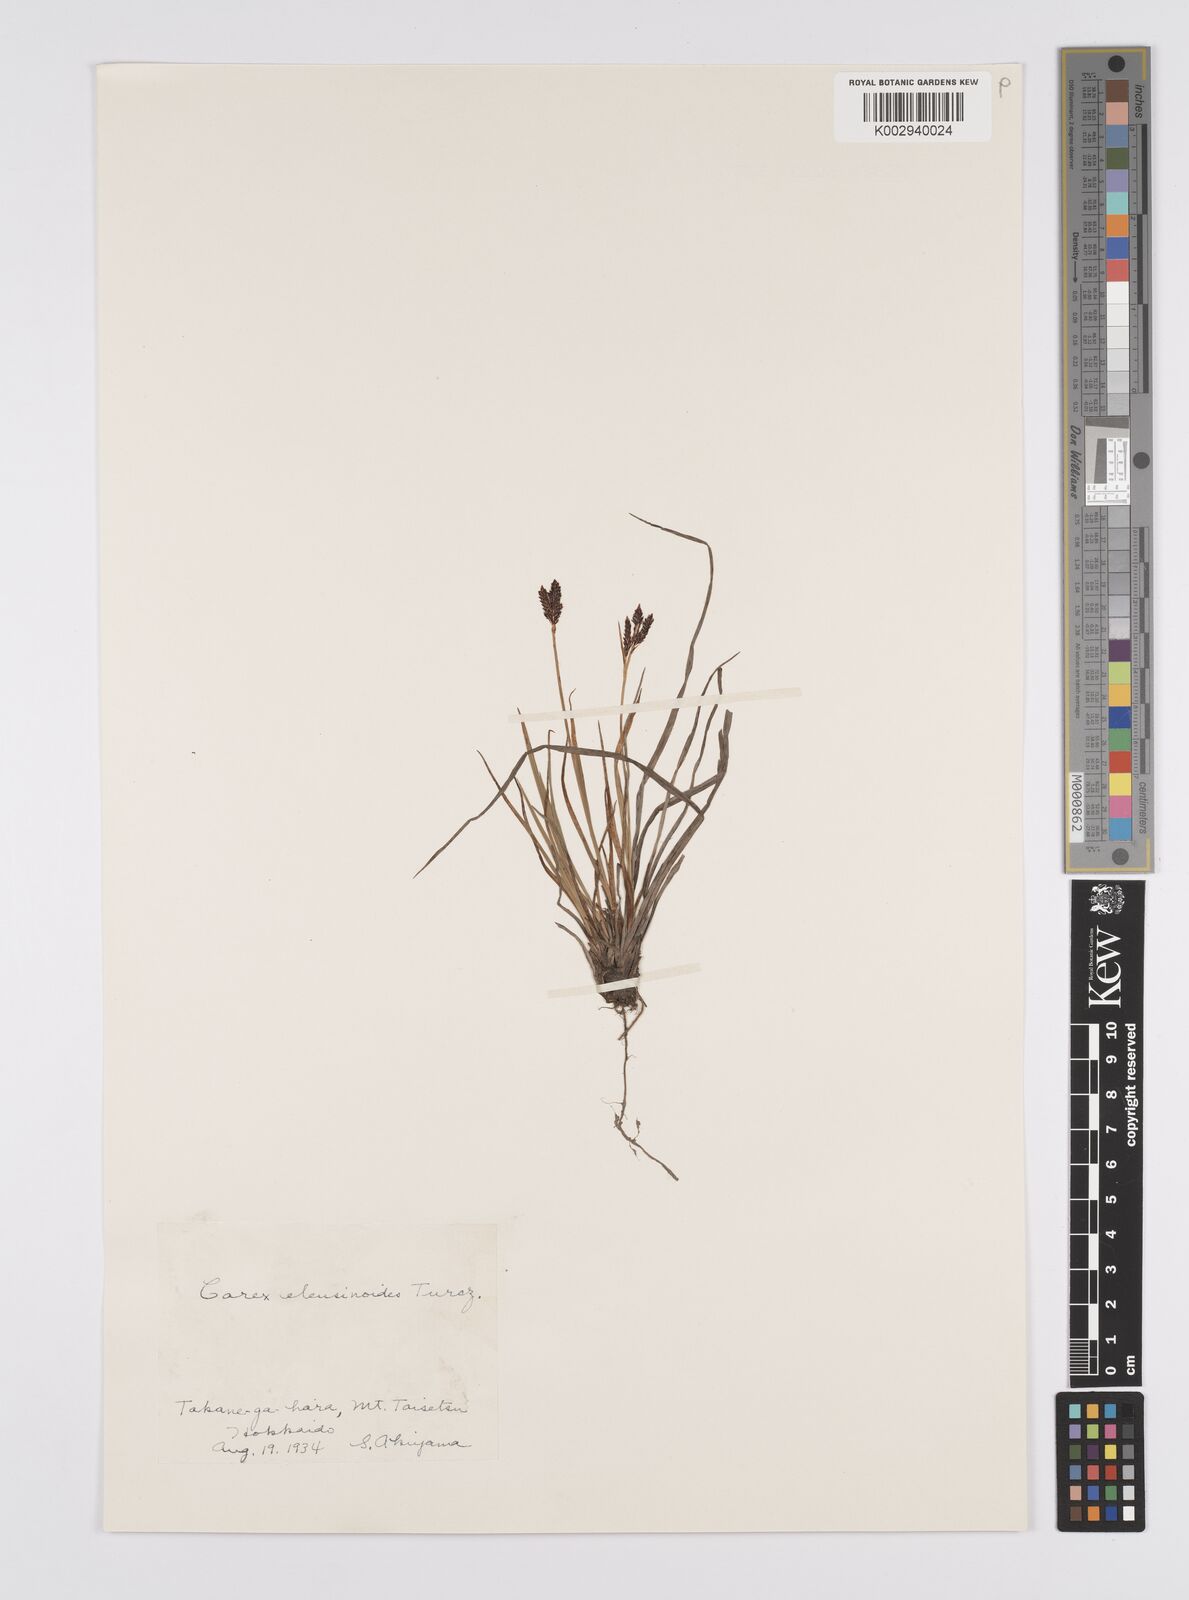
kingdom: Plantae
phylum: Tracheophyta
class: Liliopsida
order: Poales
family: Cyperaceae
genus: Carex
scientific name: Carex eleusinoides
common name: Goosegrass sedge
